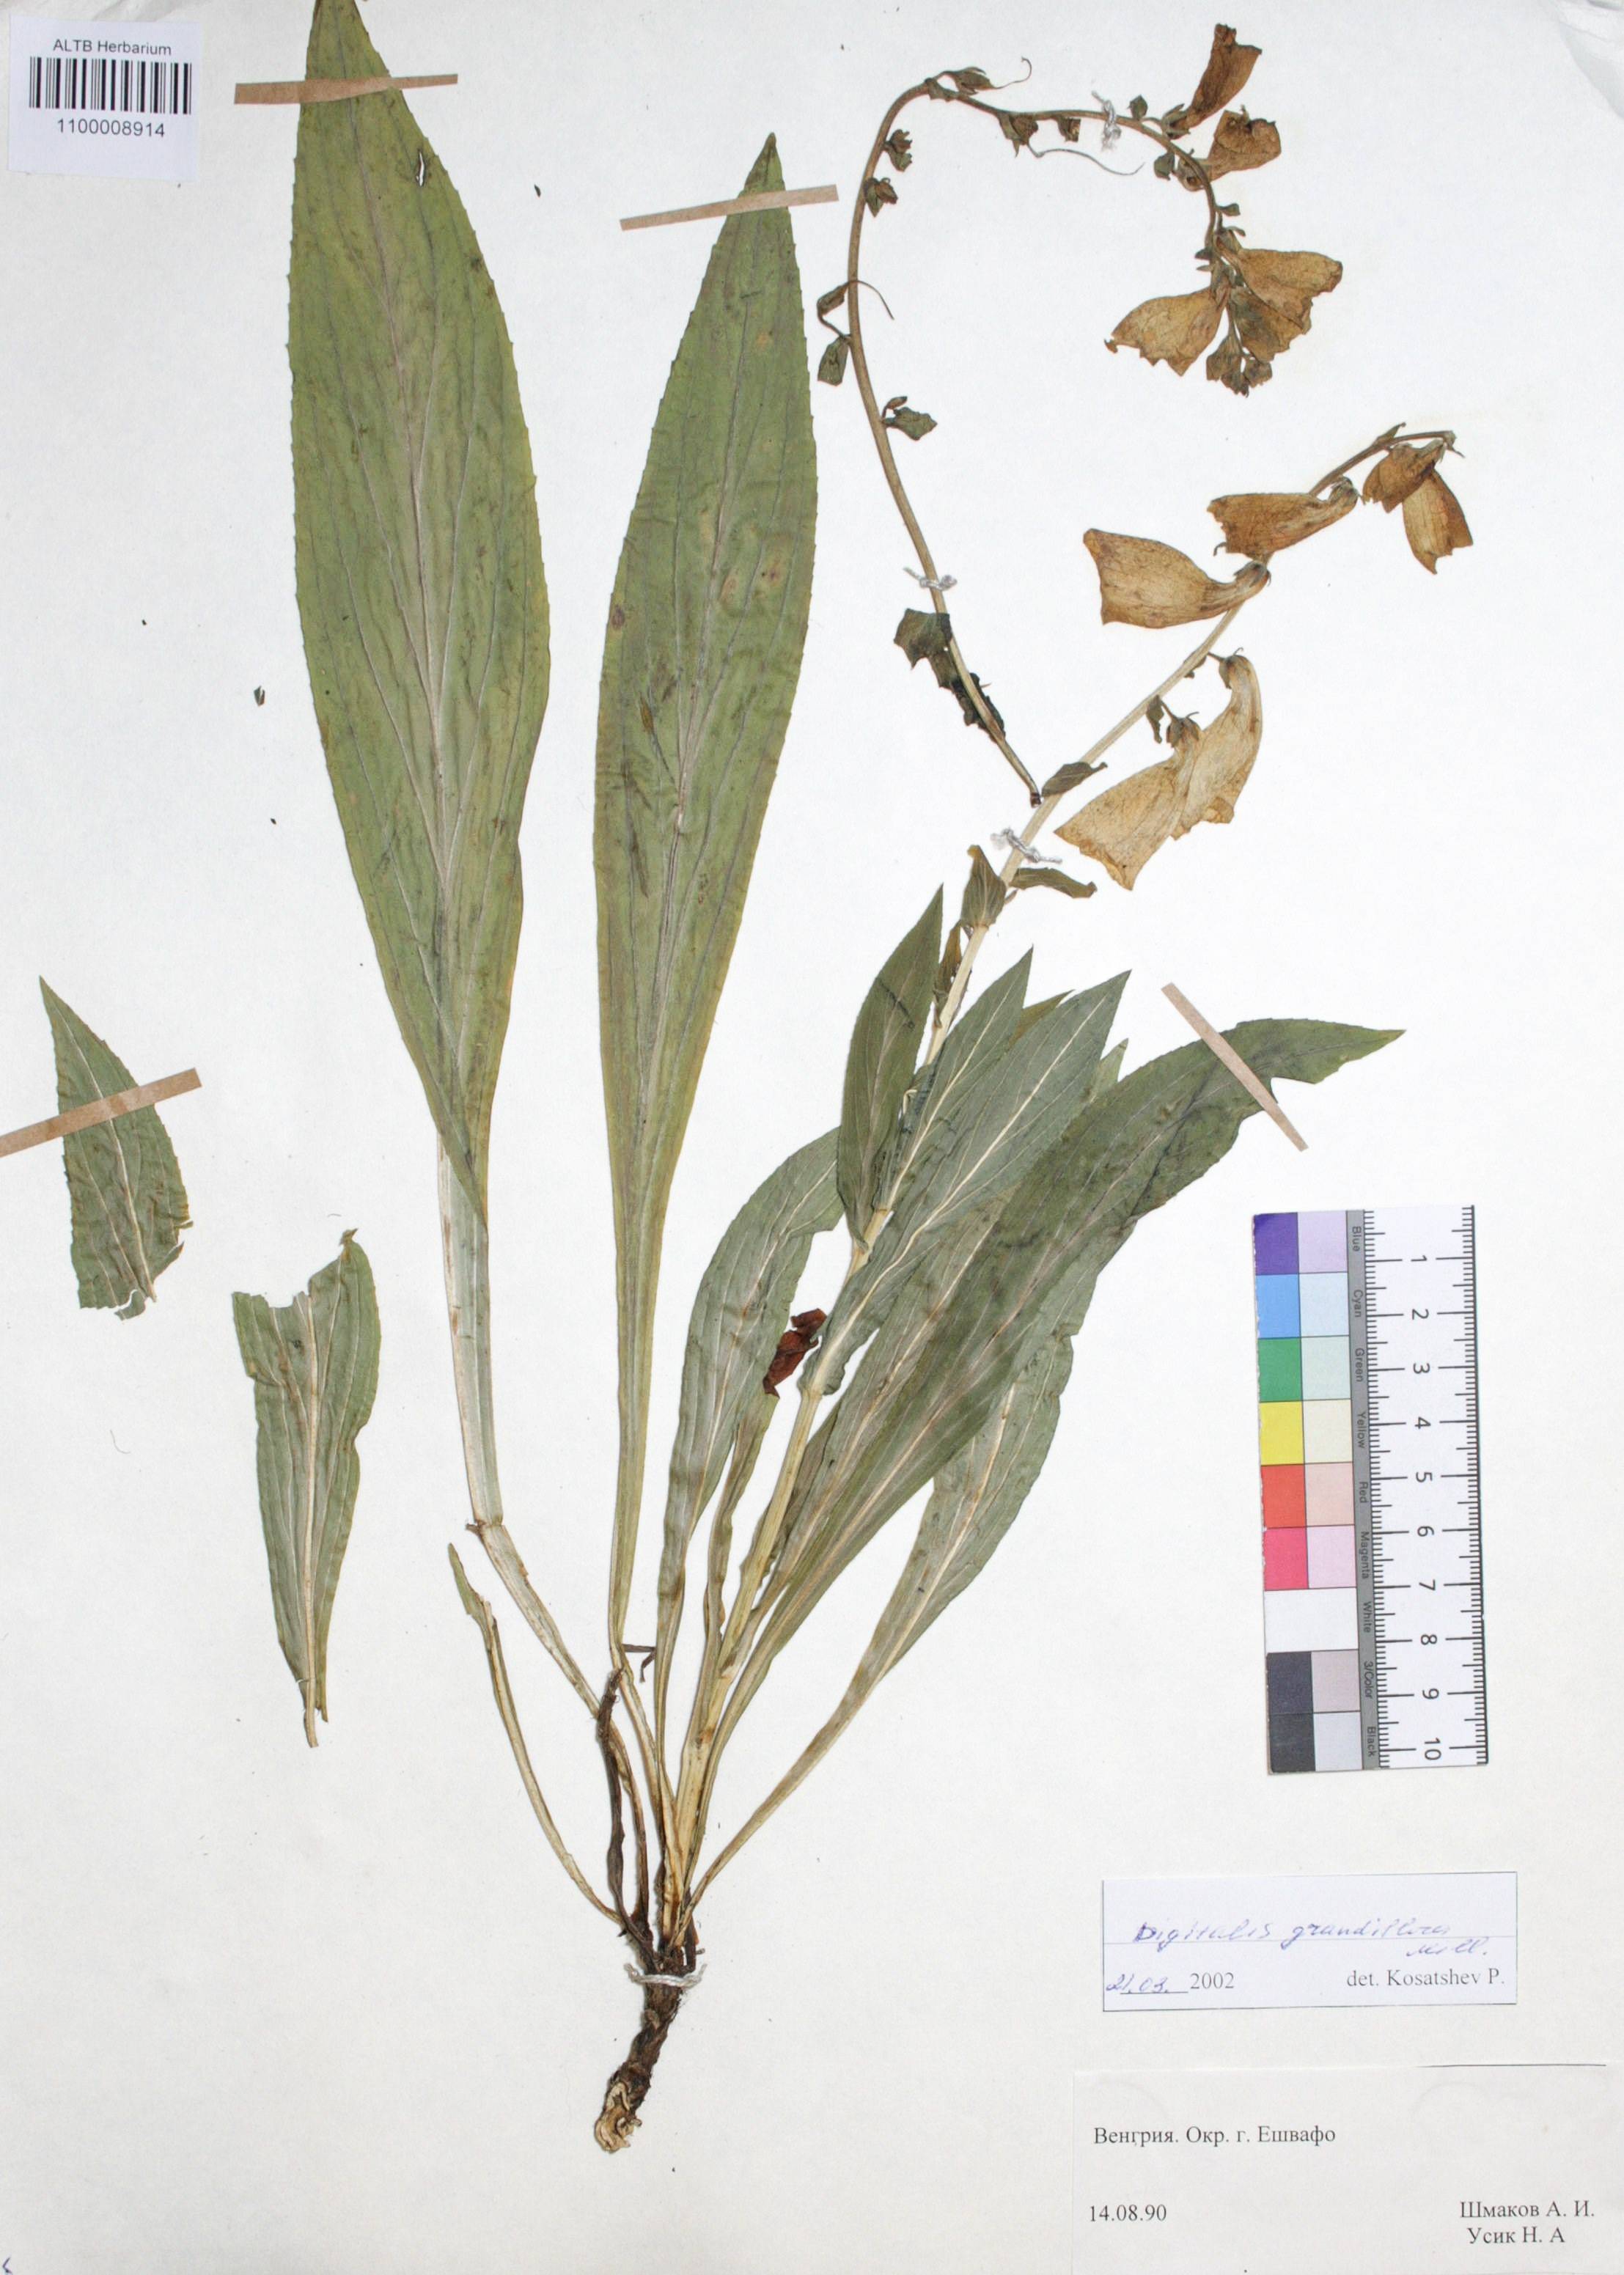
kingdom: Plantae
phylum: Tracheophyta
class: Magnoliopsida
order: Lamiales
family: Plantaginaceae
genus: Digitalis
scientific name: Digitalis grandiflora
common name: Yellow foxglove
